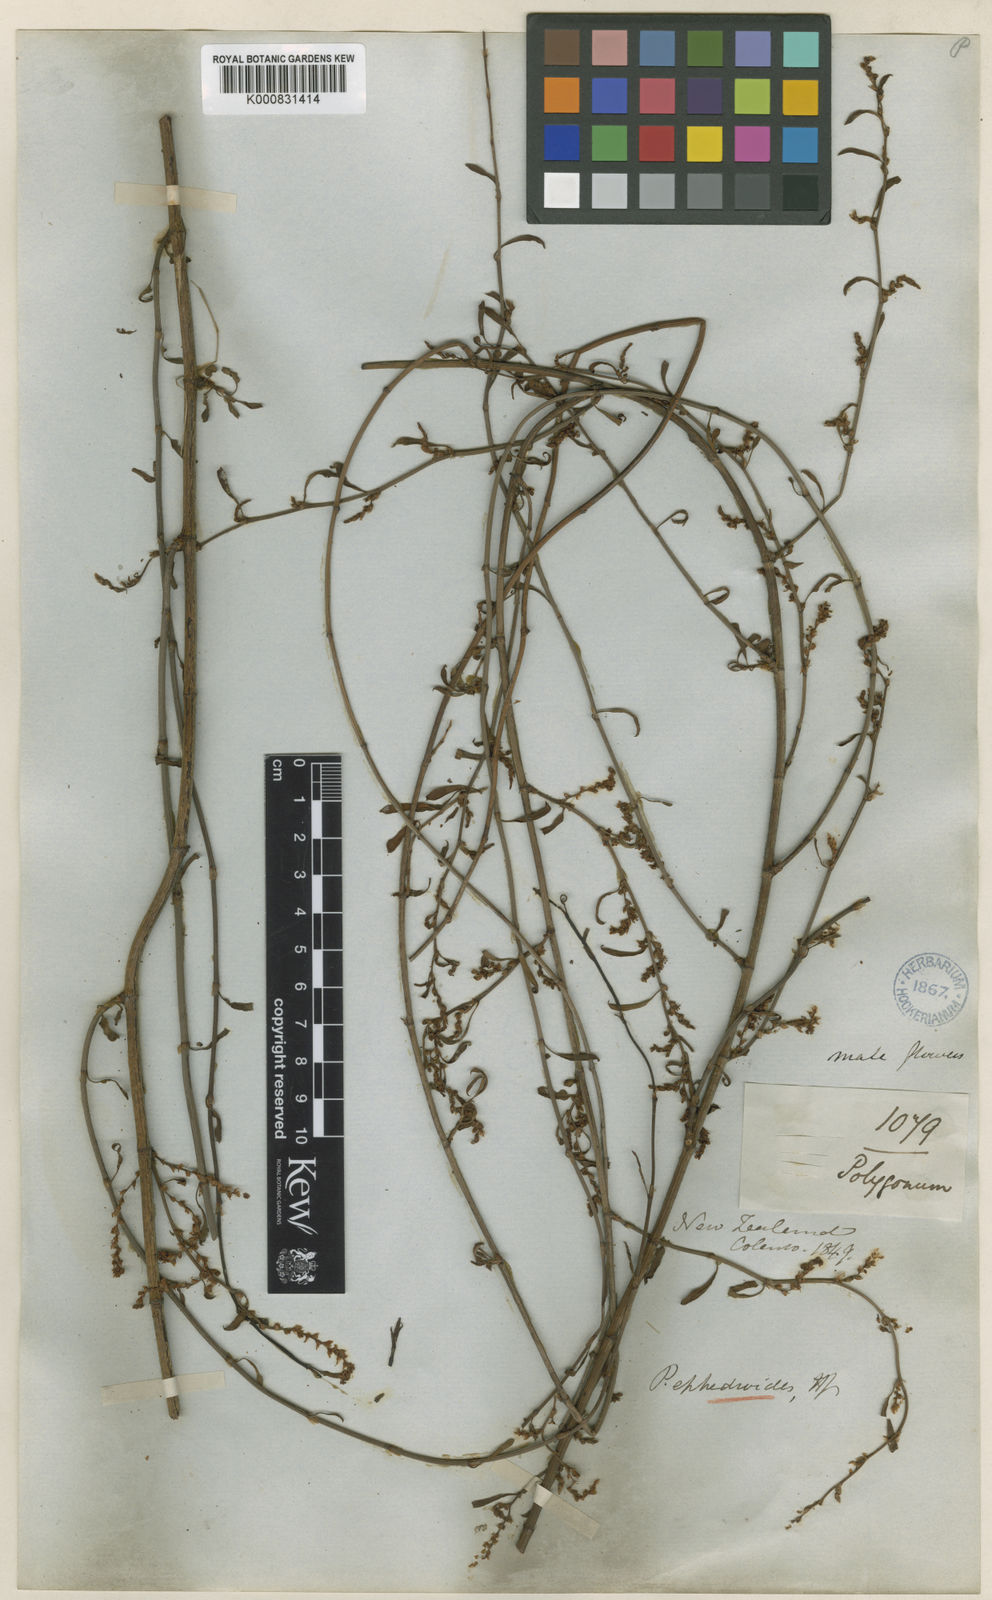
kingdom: Plantae
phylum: Tracheophyta
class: Magnoliopsida
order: Caryophyllales
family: Polygonaceae
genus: Muehlenbeckia
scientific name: Muehlenbeckia ephedroides
